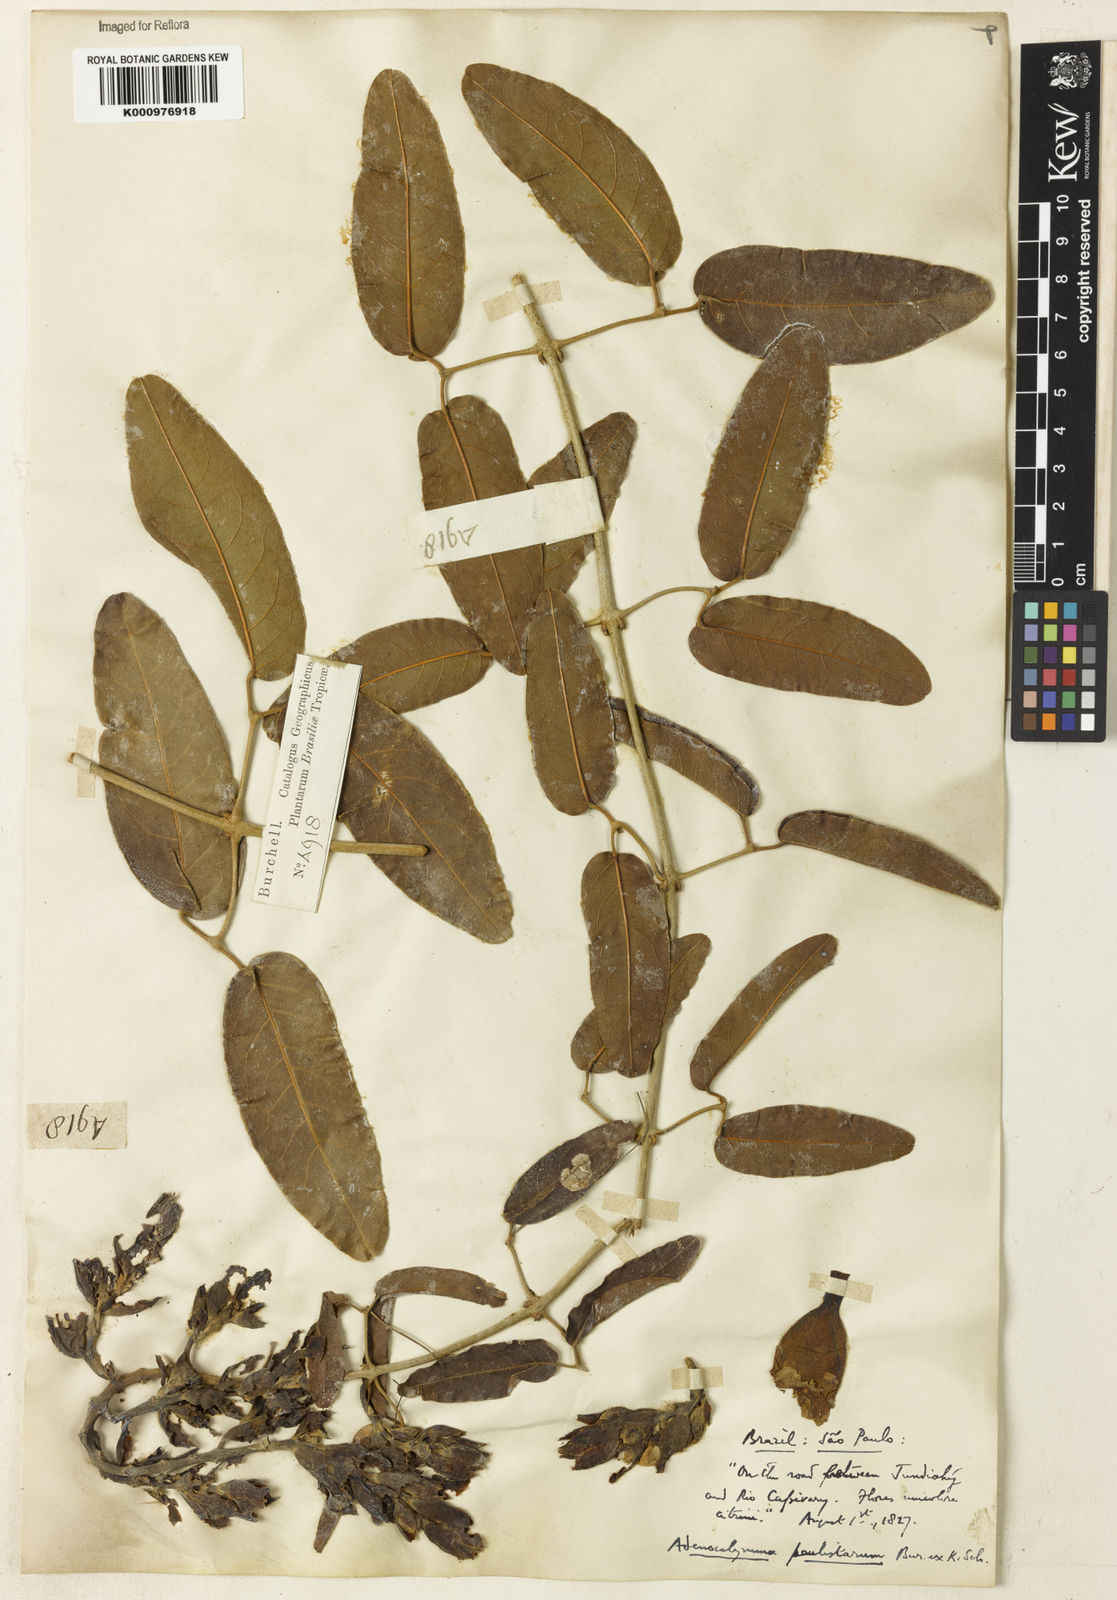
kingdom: Plantae
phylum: Tracheophyta
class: Magnoliopsida
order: Lamiales
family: Bignoniaceae
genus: Adenocalymma
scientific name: Adenocalymma paulistarum
